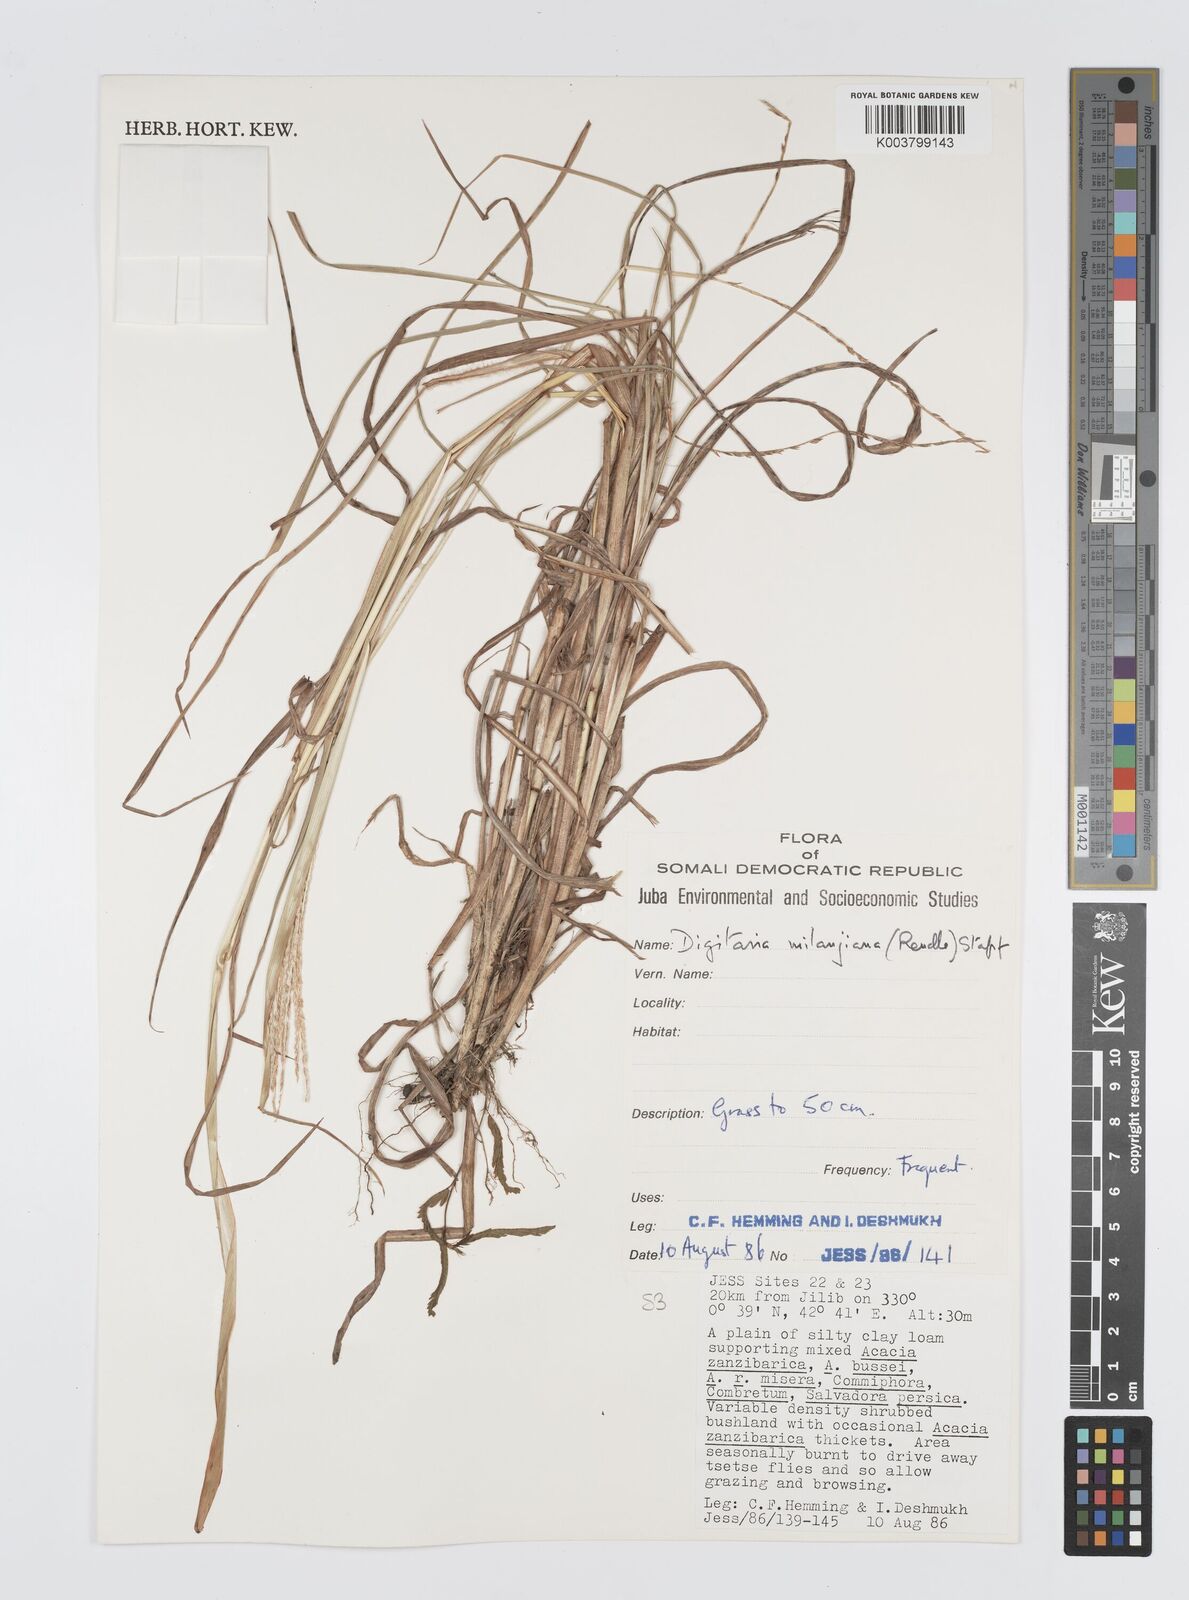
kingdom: Plantae
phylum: Tracheophyta
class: Liliopsida
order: Poales
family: Poaceae
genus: Digitaria
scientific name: Digitaria milanjiana
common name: Madagascar crabgrass
